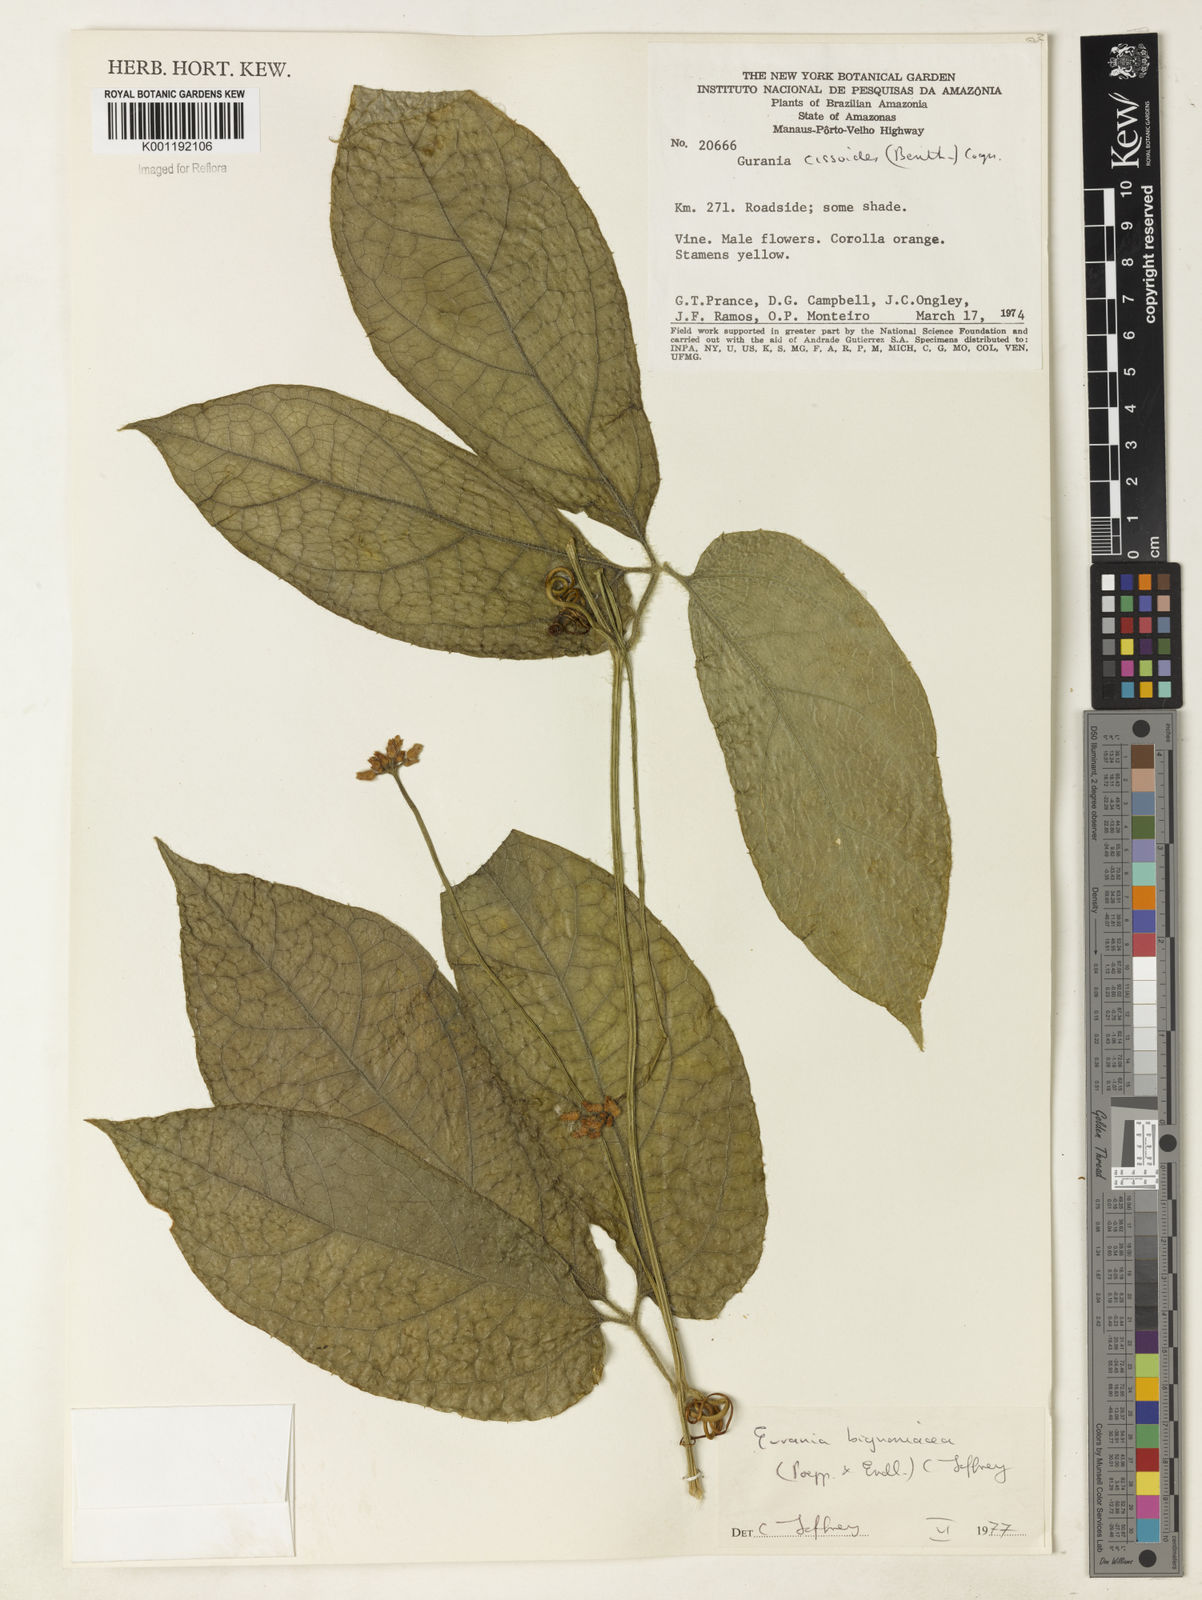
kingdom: Plantae
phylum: Tracheophyta
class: Magnoliopsida
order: Cucurbitales
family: Cucurbitaceae
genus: Gurania
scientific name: Gurania bignoniacea
